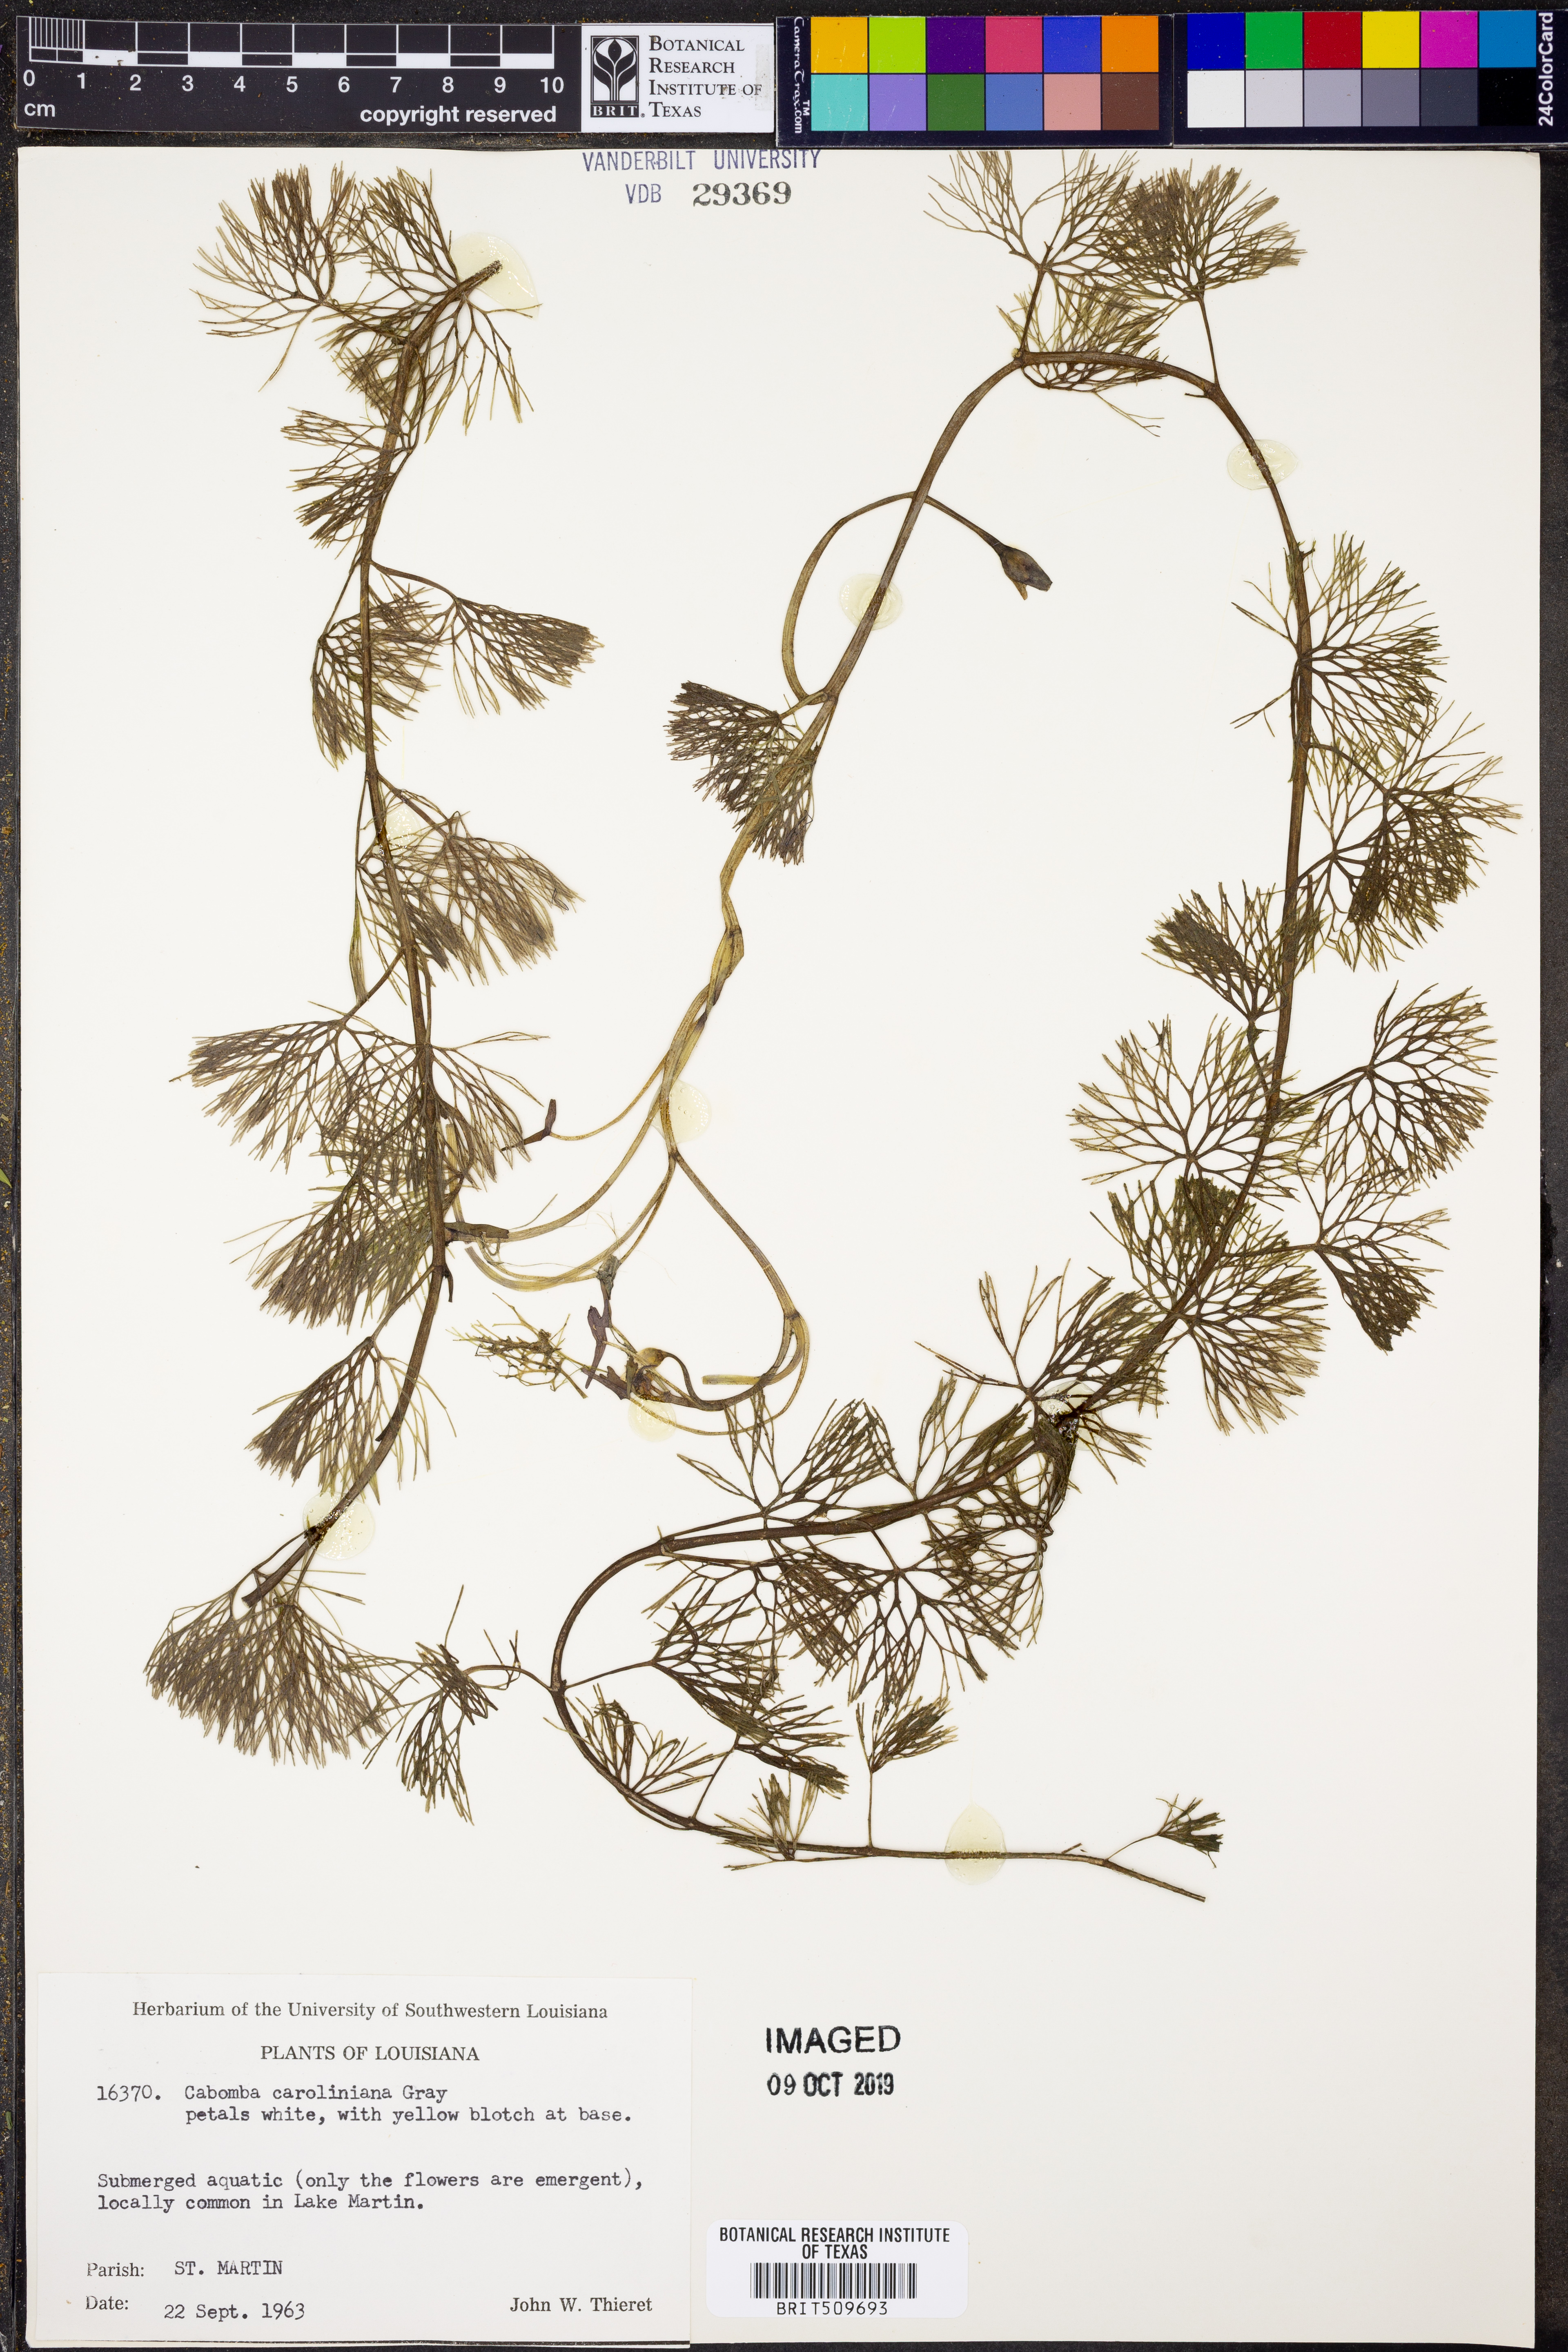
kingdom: Plantae
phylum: Tracheophyta
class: Magnoliopsida
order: Nymphaeales
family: Cabombaceae
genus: Cabomba
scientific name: Cabomba caroliniana
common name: Fanwort
